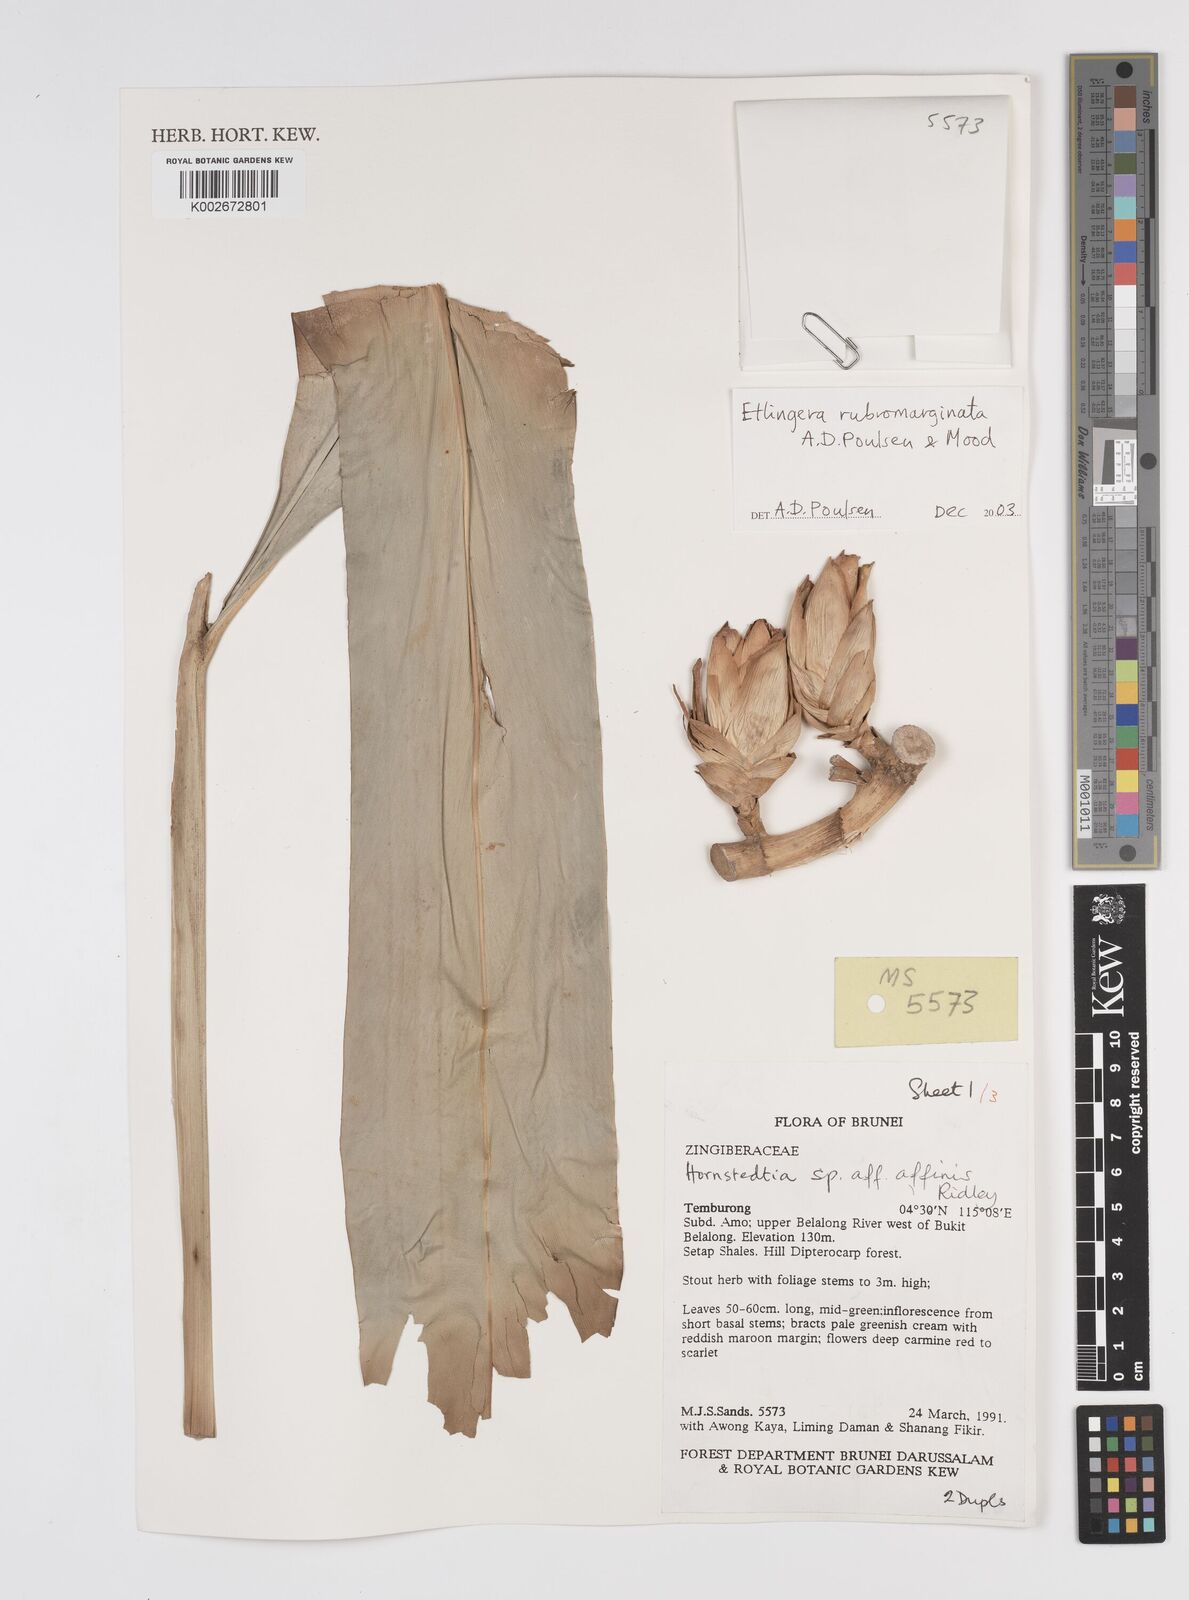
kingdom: Plantae
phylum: Tracheophyta
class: Liliopsida
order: Zingiberales
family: Zingiberaceae
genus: Etlingera
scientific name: Etlingera rubromarginata
